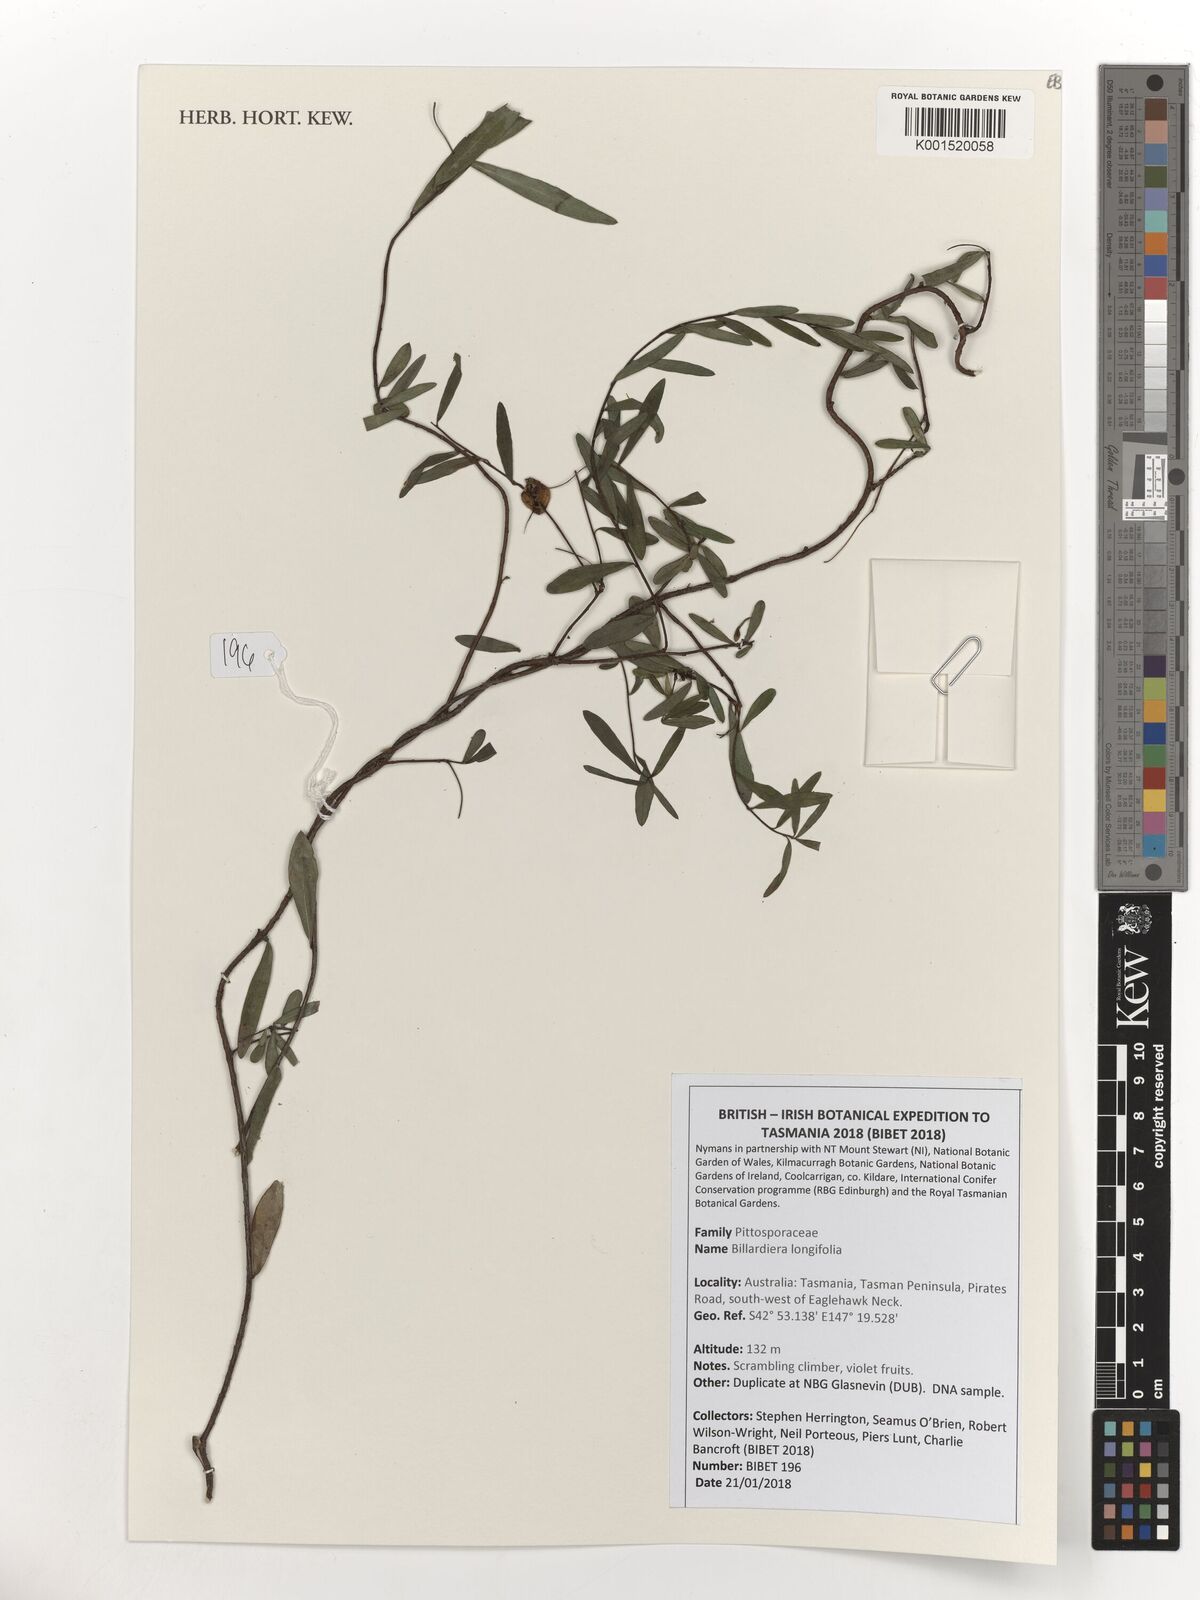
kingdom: Plantae
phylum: Tracheophyta
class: Magnoliopsida
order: Apiales
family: Pittosporaceae
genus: Billardiera
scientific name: Billardiera longiflora
